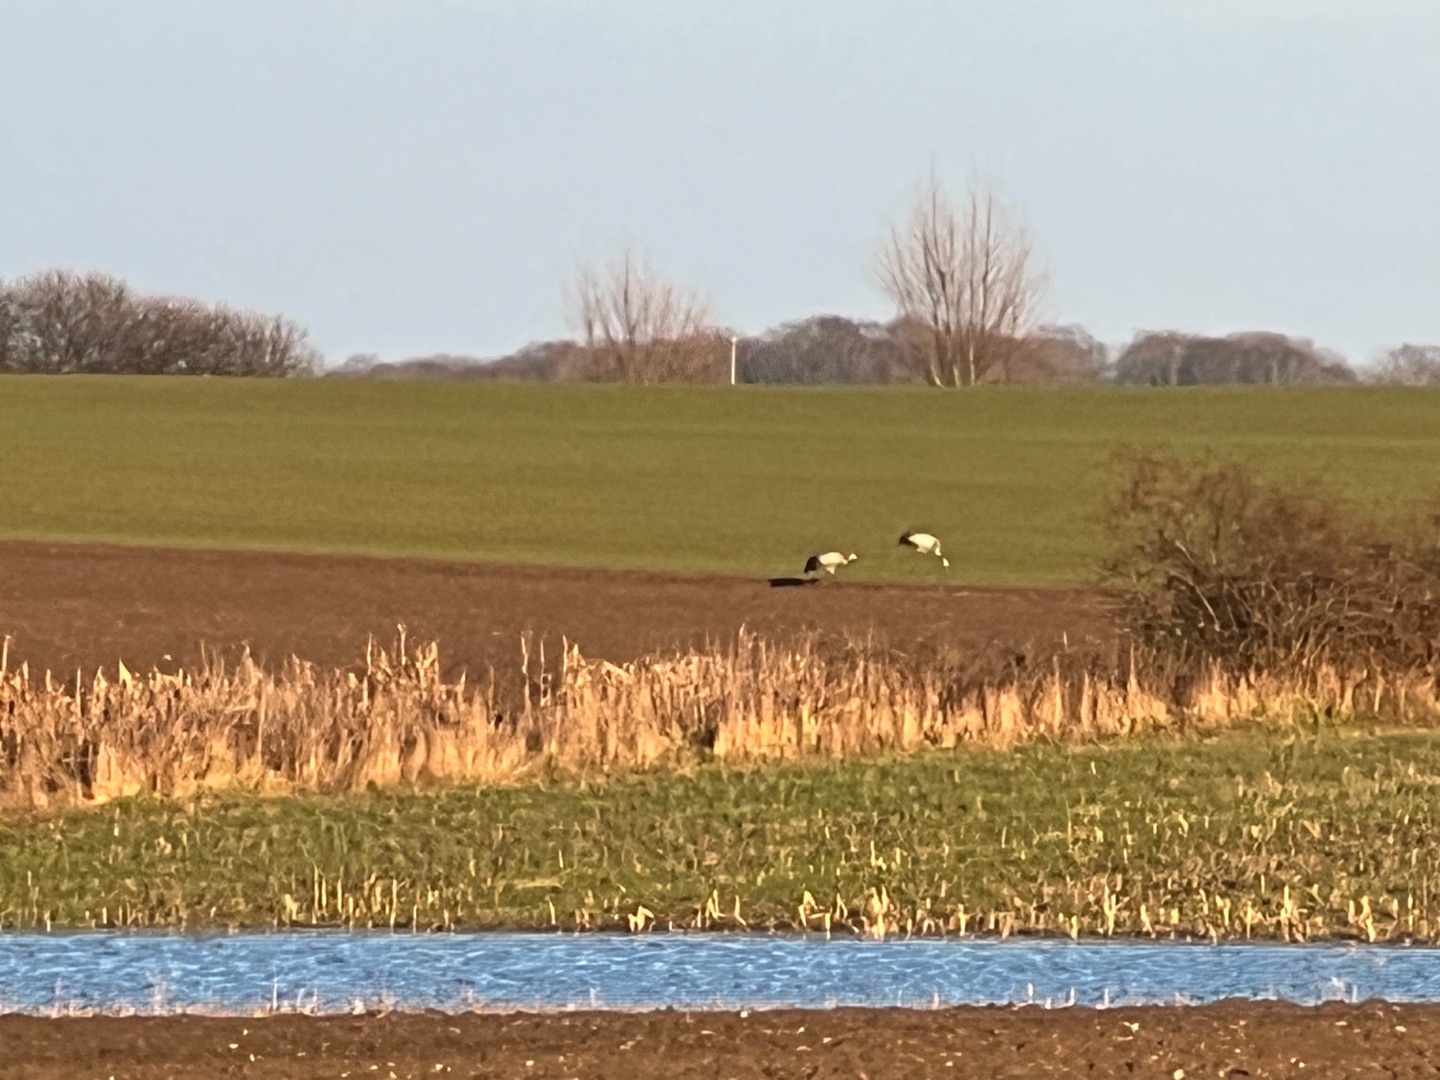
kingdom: Animalia
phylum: Chordata
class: Aves
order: Gruiformes
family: Gruidae
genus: Grus
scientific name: Grus grus
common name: Trane
